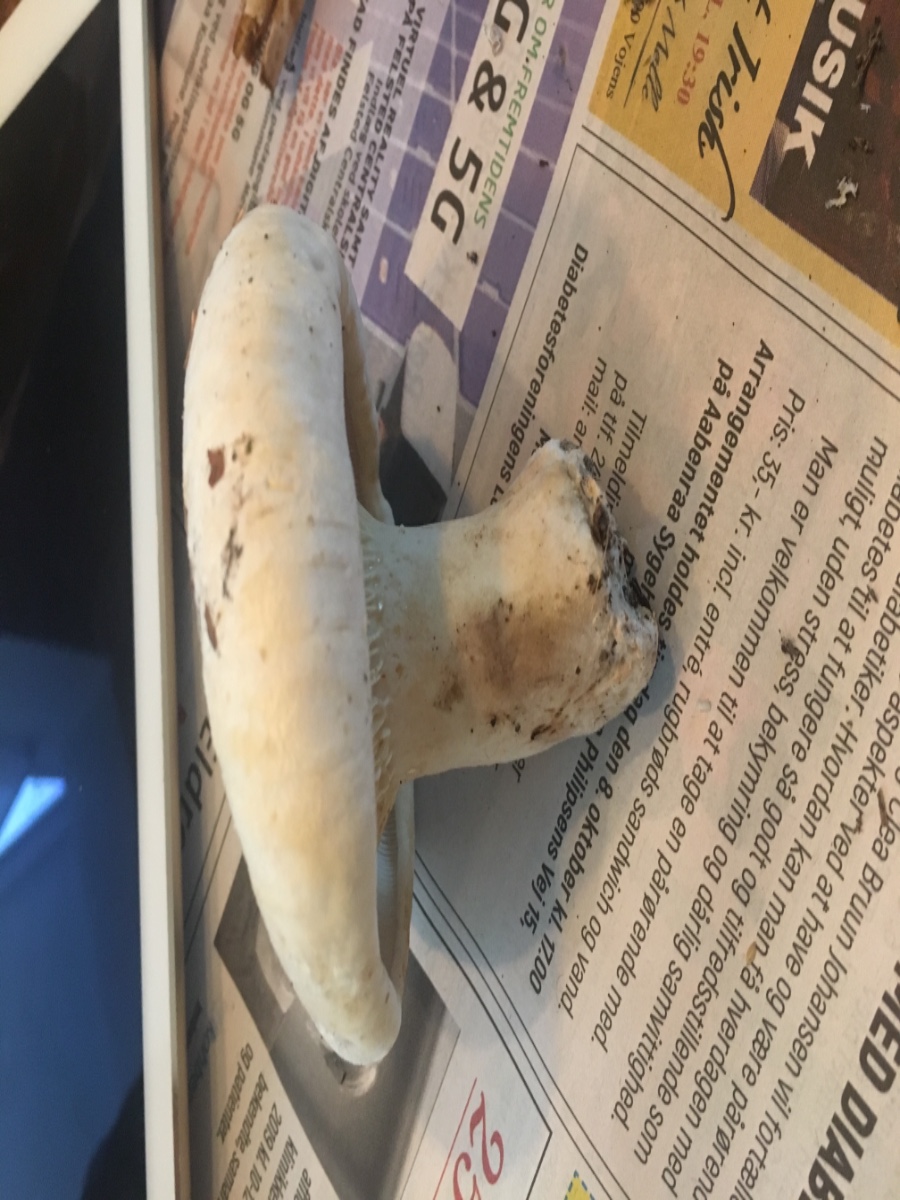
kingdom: Fungi
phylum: Basidiomycota
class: Agaricomycetes
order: Russulales
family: Russulaceae
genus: Lactarius
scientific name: Lactarius
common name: mælkehat
